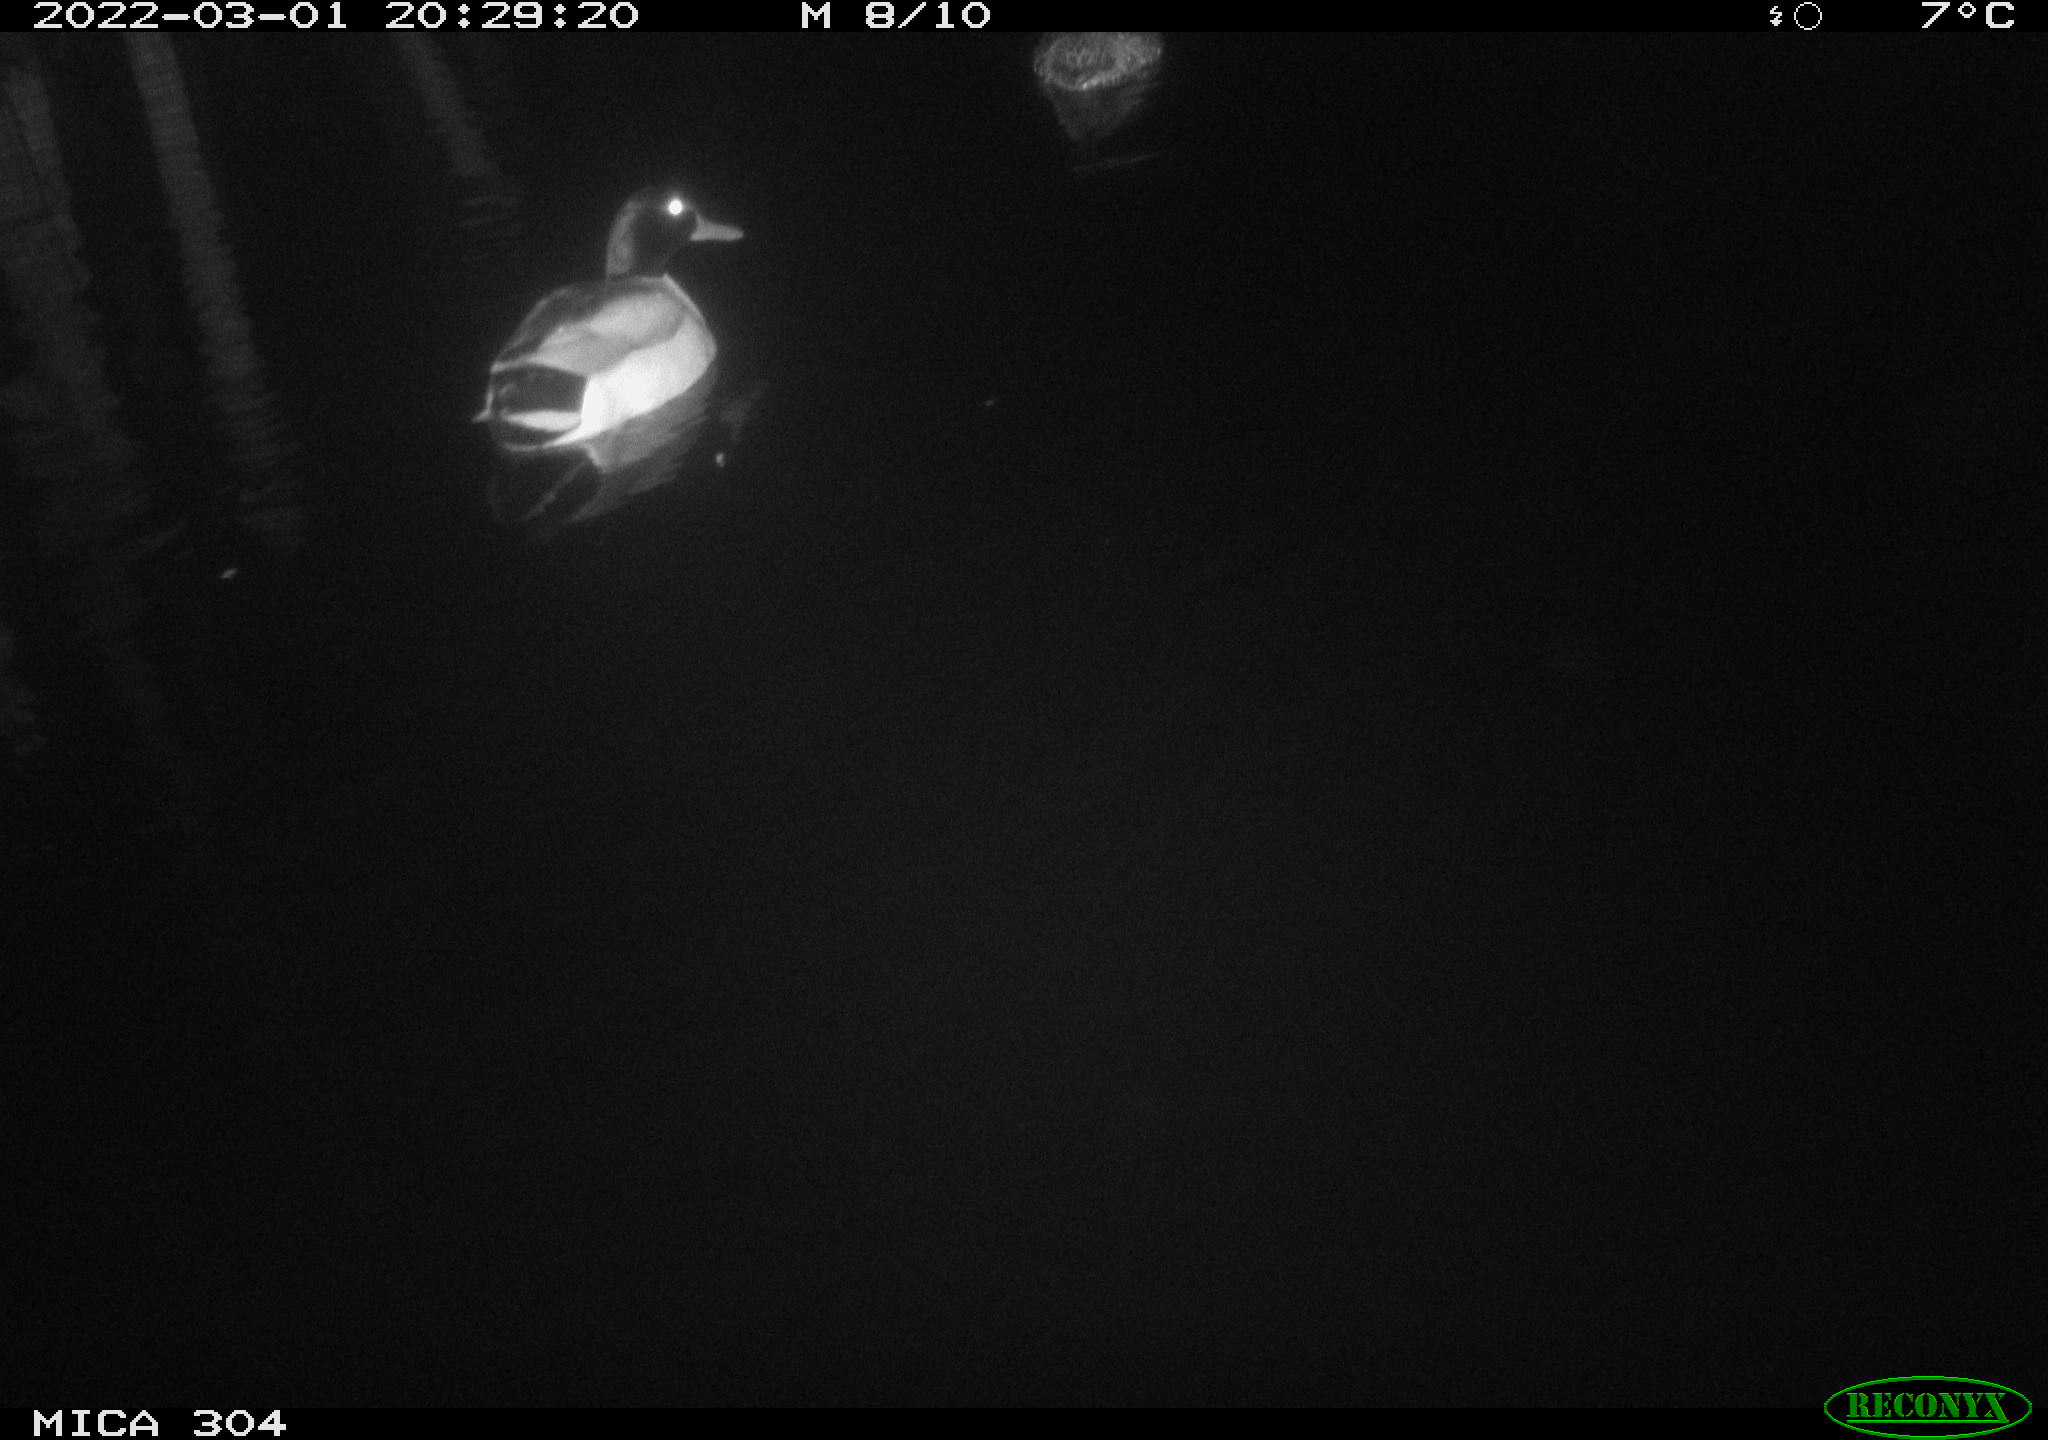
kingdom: Animalia
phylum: Chordata
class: Aves
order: Anseriformes
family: Anatidae
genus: Anas
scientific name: Anas platyrhynchos
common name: Mallard
